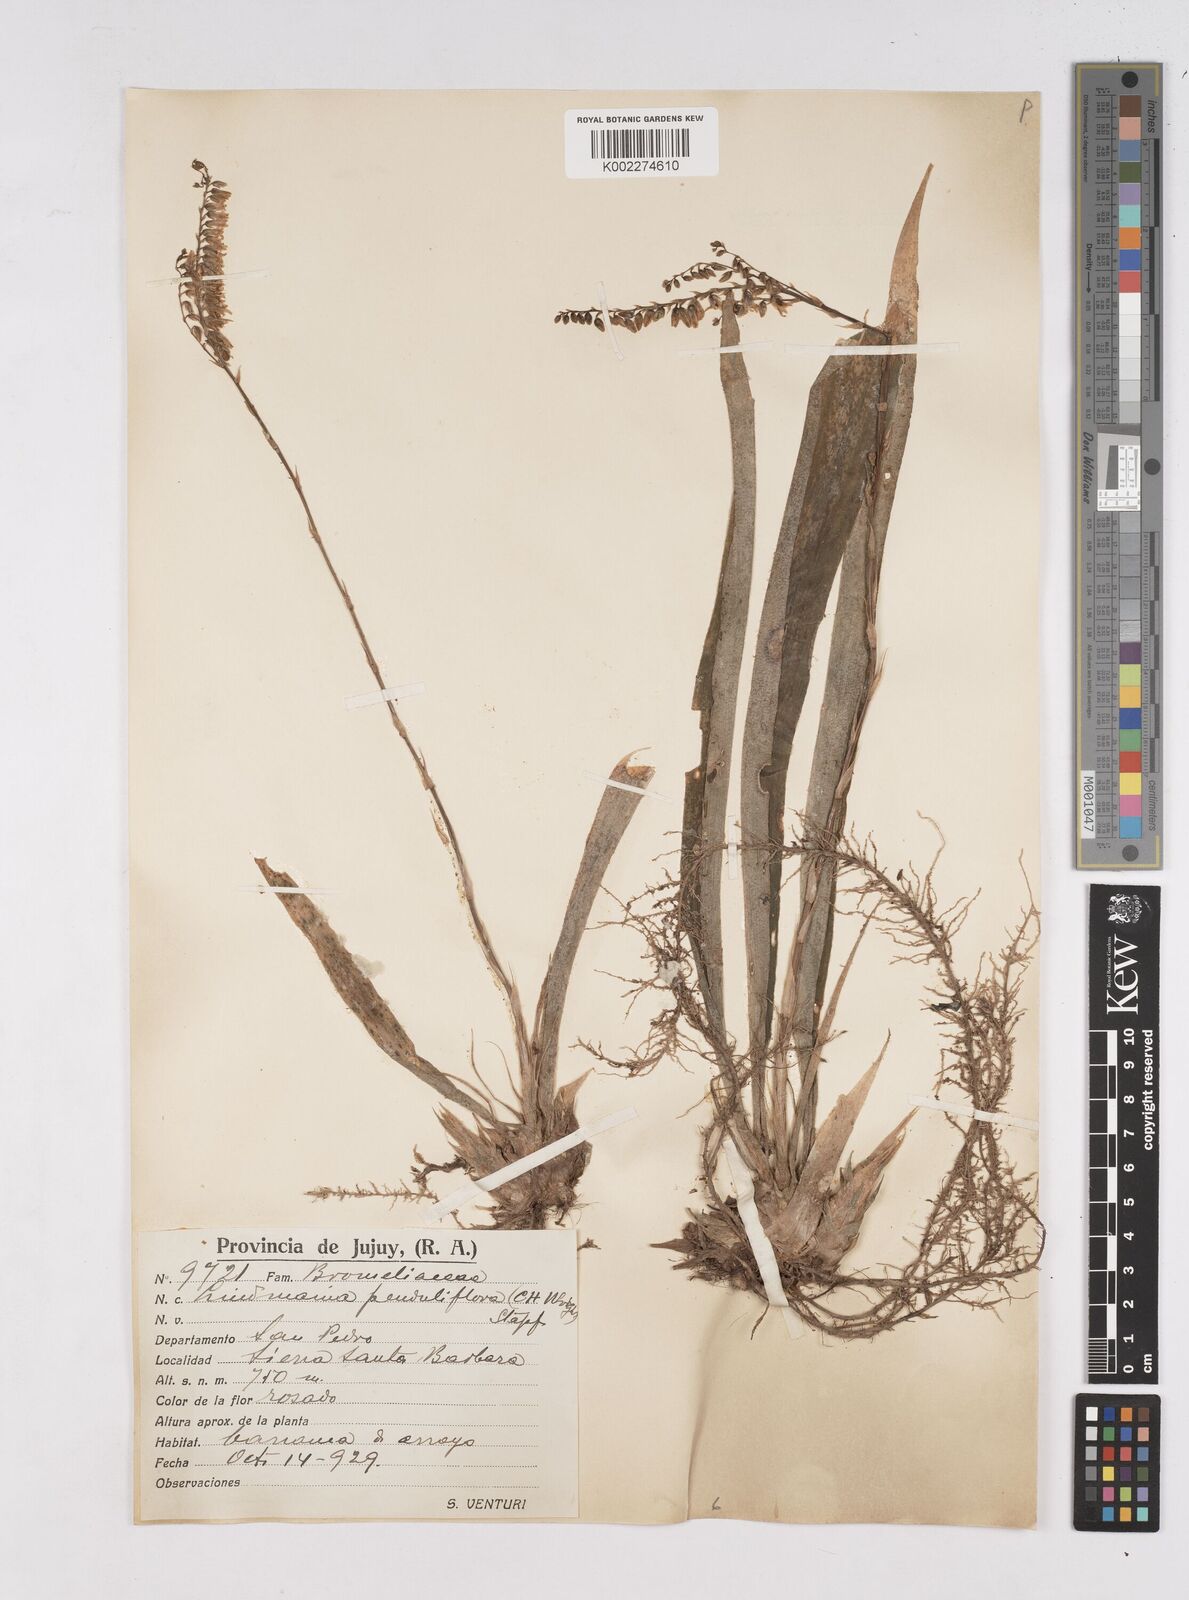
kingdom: Plantae
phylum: Tracheophyta
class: Liliopsida
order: Poales
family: Bromeliaceae
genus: Fosterella
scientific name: Fosterella penduliflora
